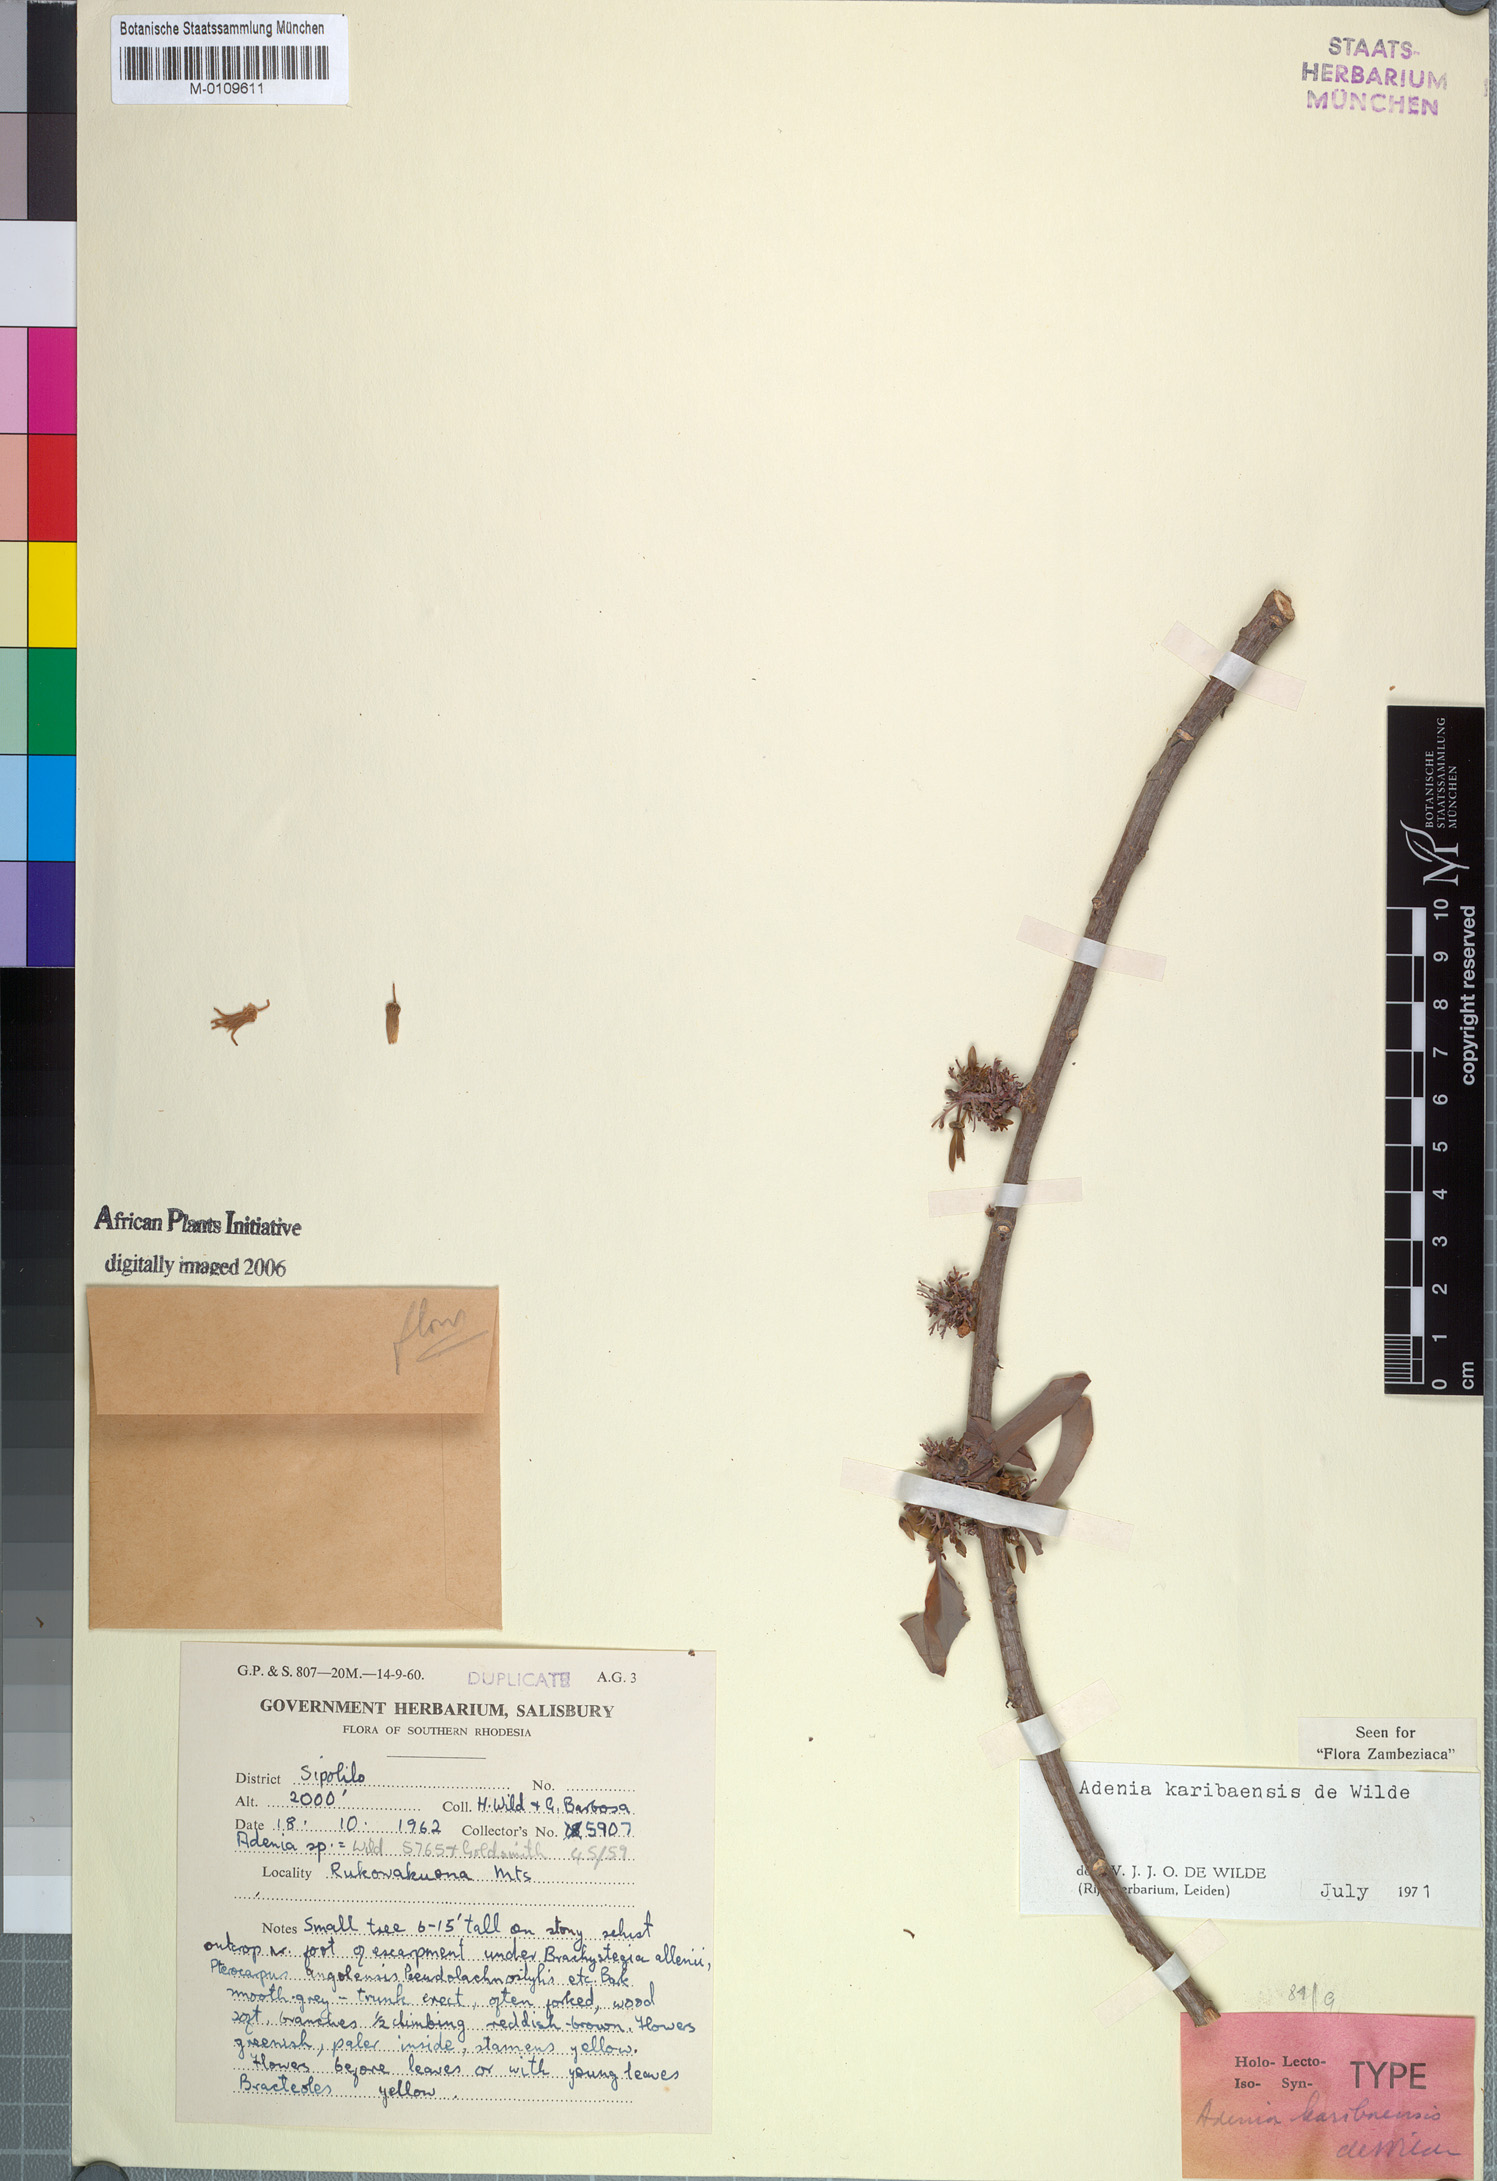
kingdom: Plantae
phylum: Tracheophyta
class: Magnoliopsida
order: Malpighiales
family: Passifloraceae
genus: Adenia
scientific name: Adenia karibaensis
